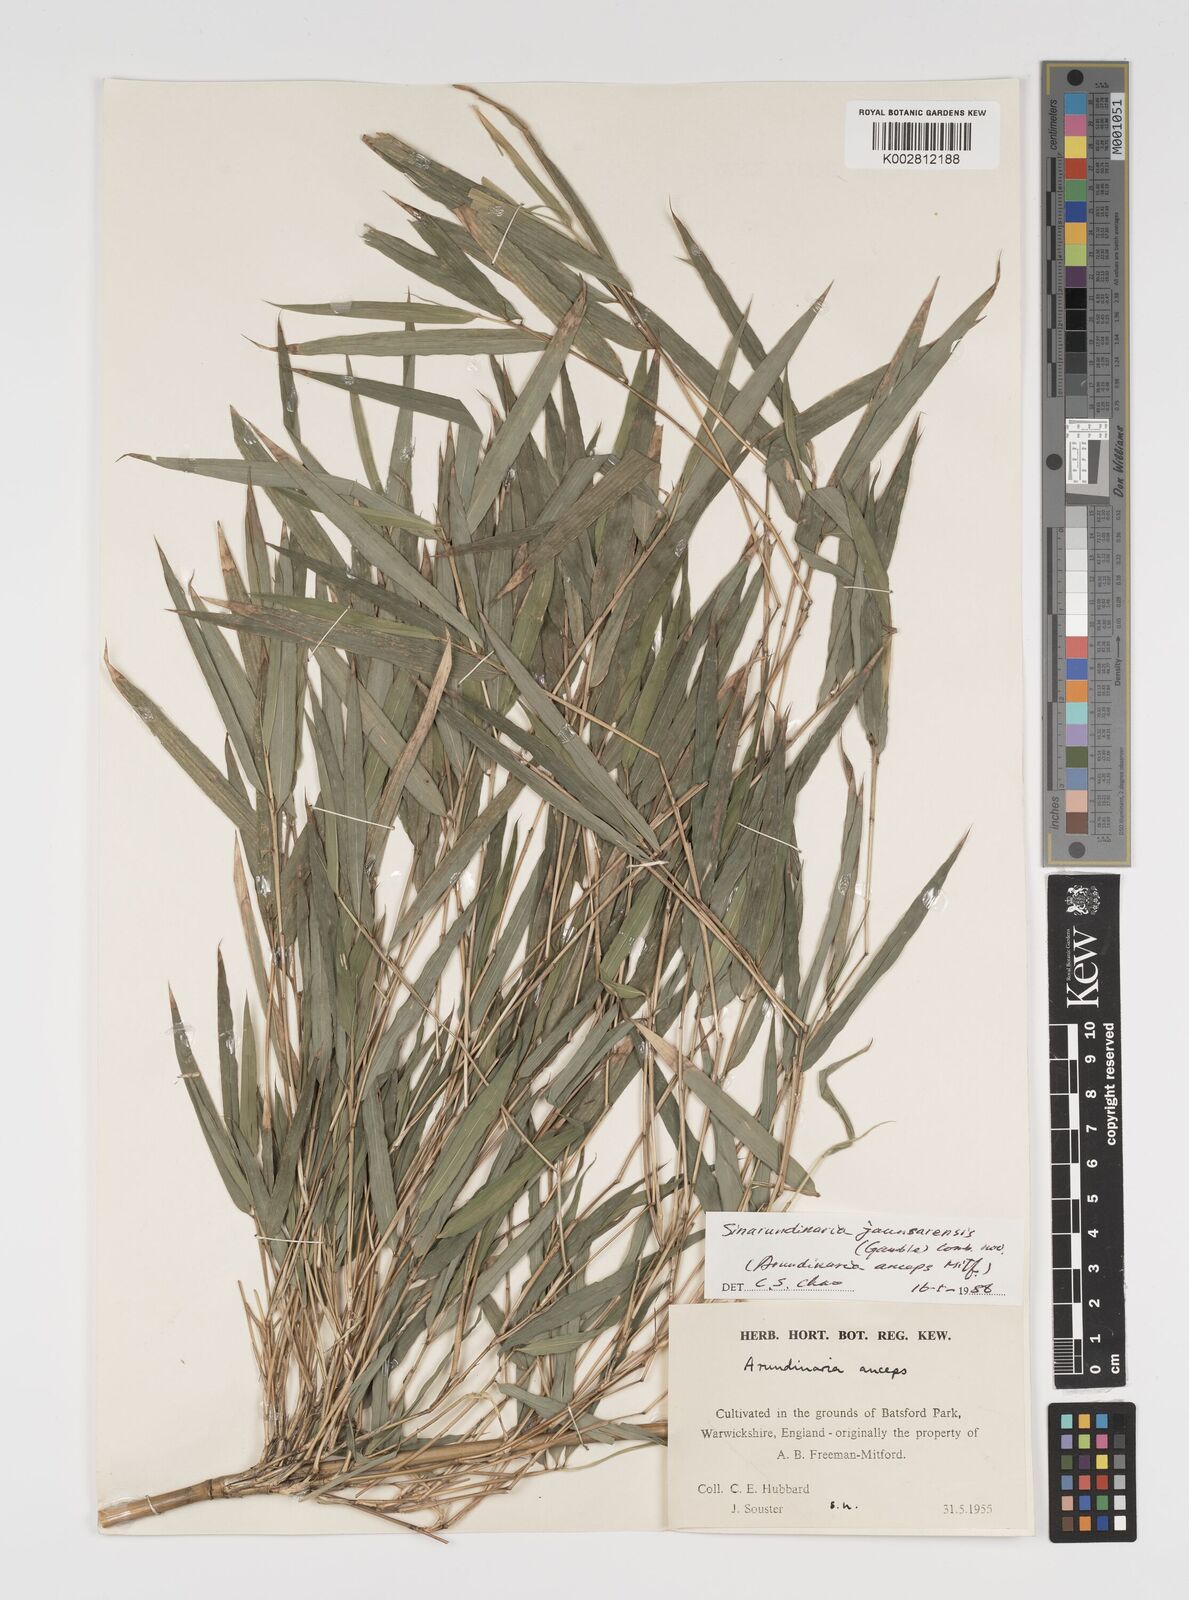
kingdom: Plantae
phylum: Tracheophyta
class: Liliopsida
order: Poales
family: Poaceae
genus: Yushania
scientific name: Yushania anceps
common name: Indian fountain-bamboo
